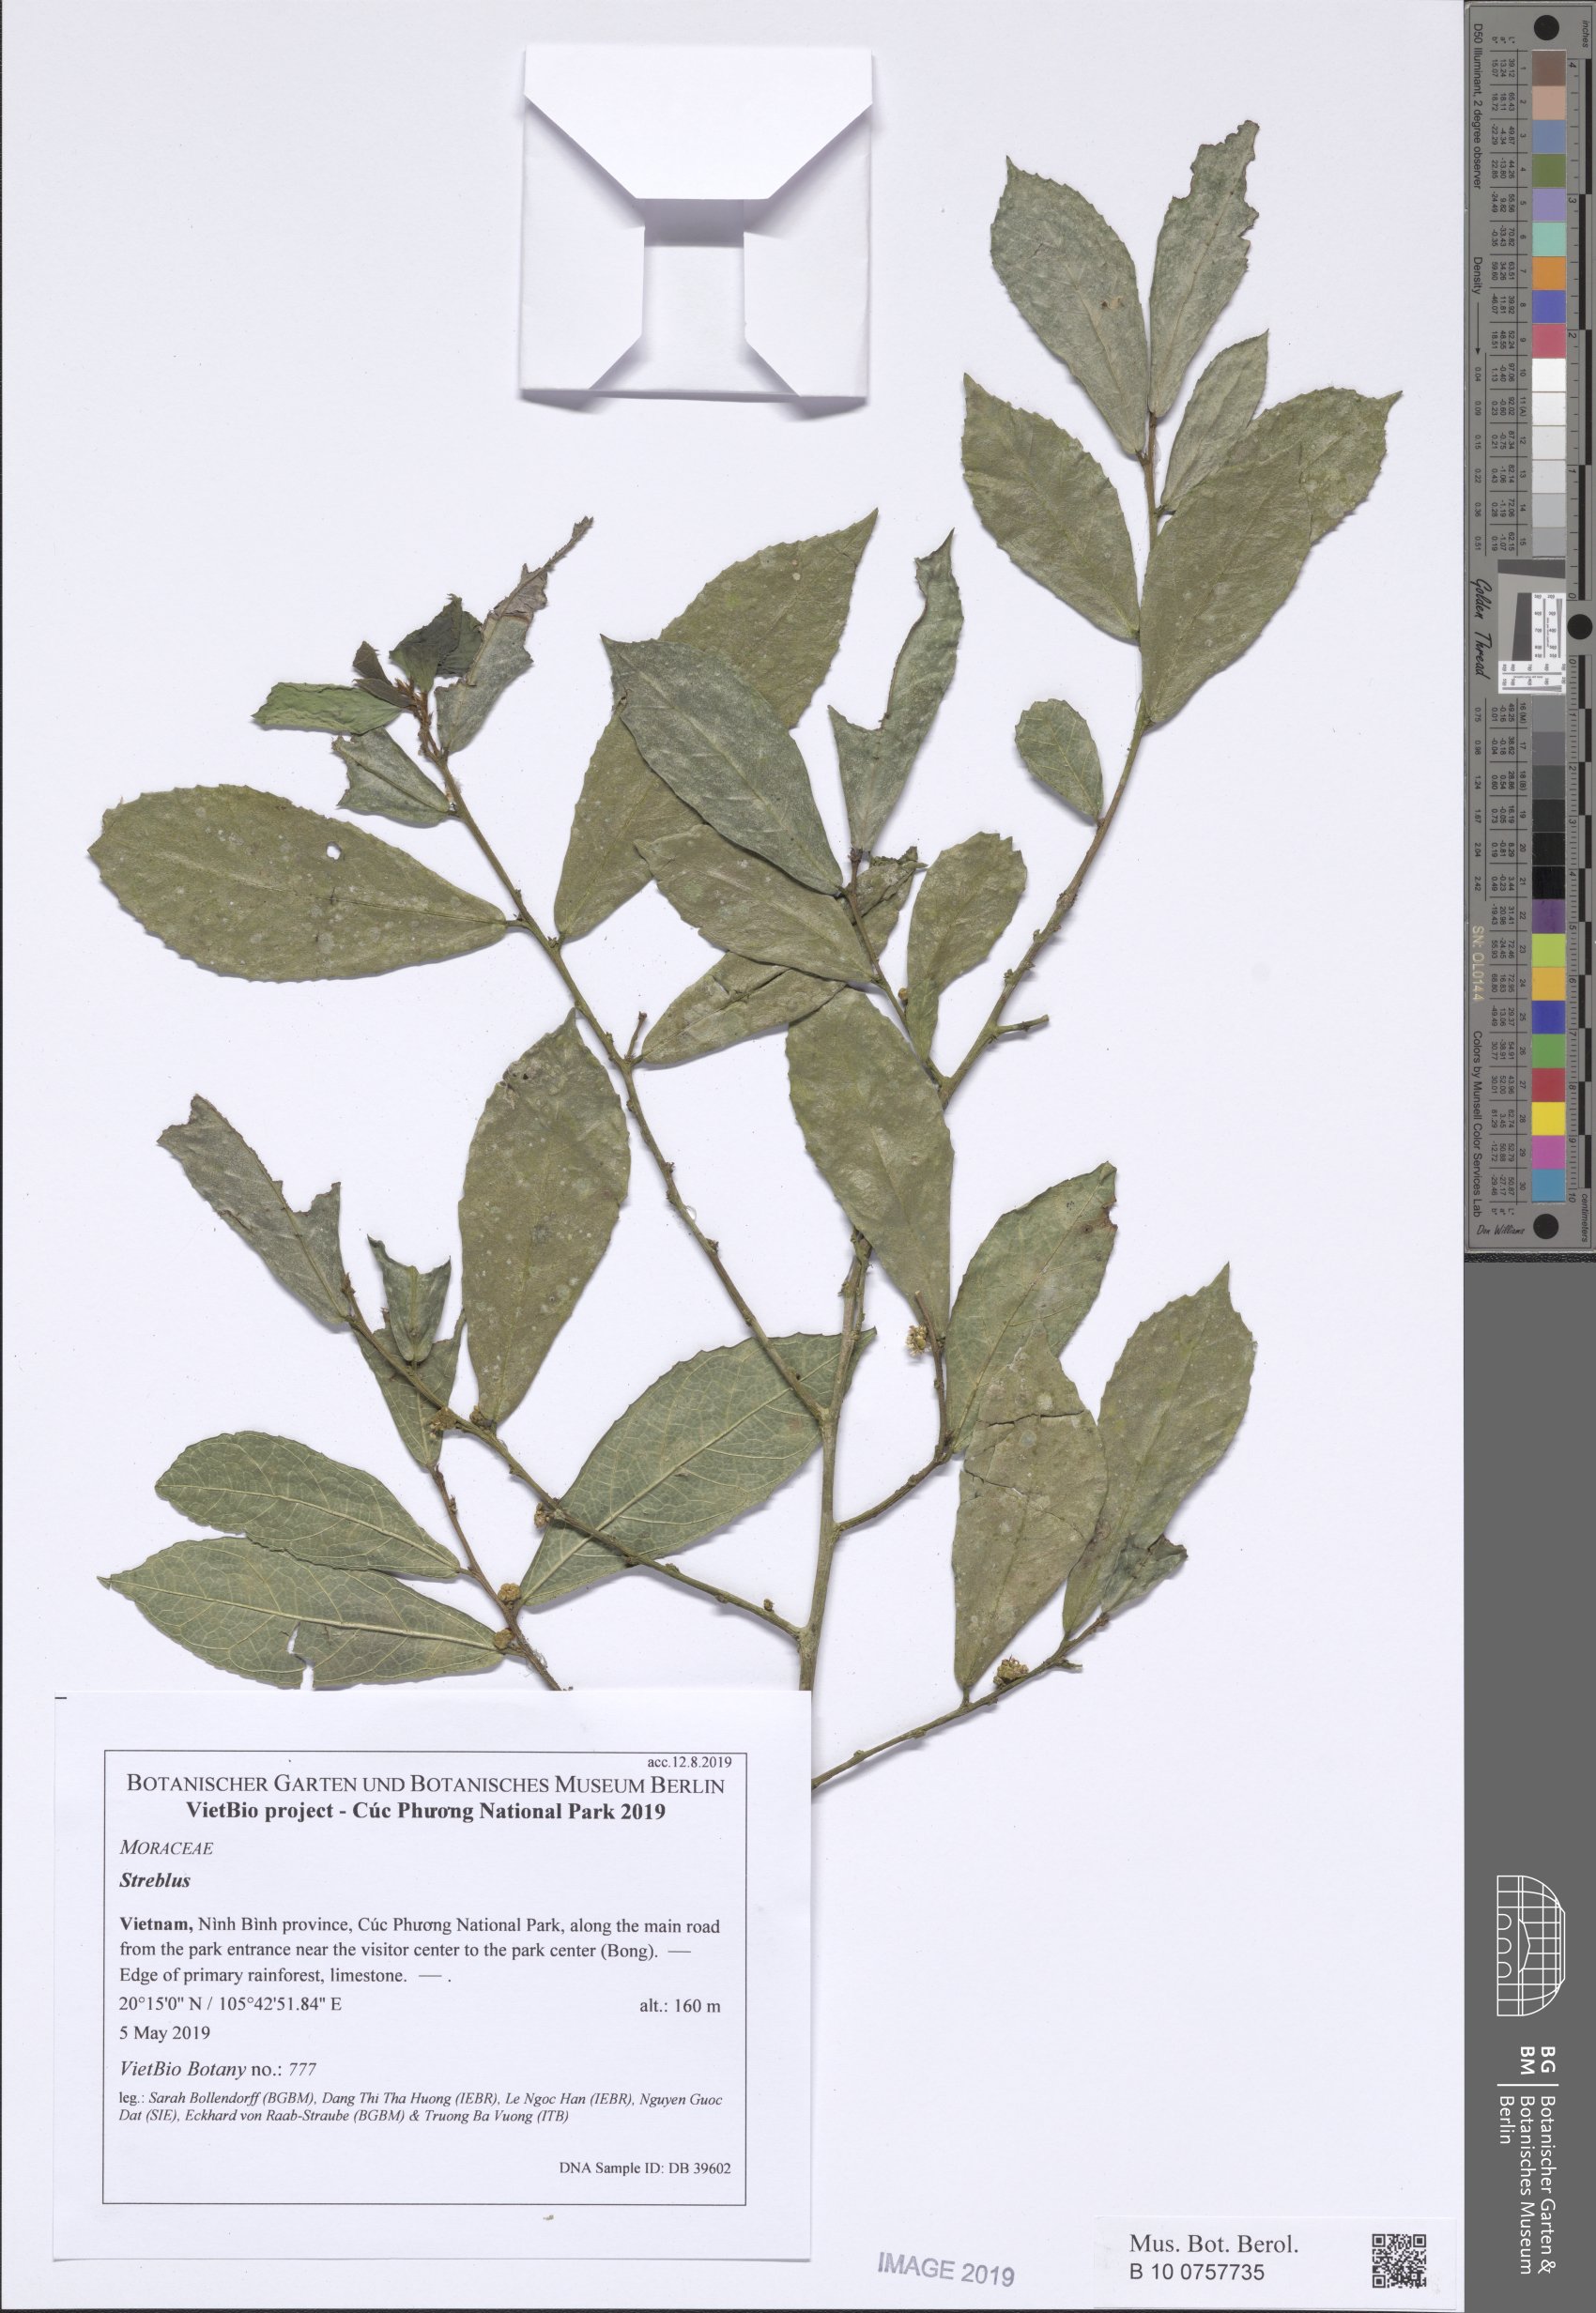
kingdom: Plantae
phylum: Tracheophyta
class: Magnoliopsida
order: Rosales
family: Moraceae
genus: Streblus
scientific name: Streblus asper
